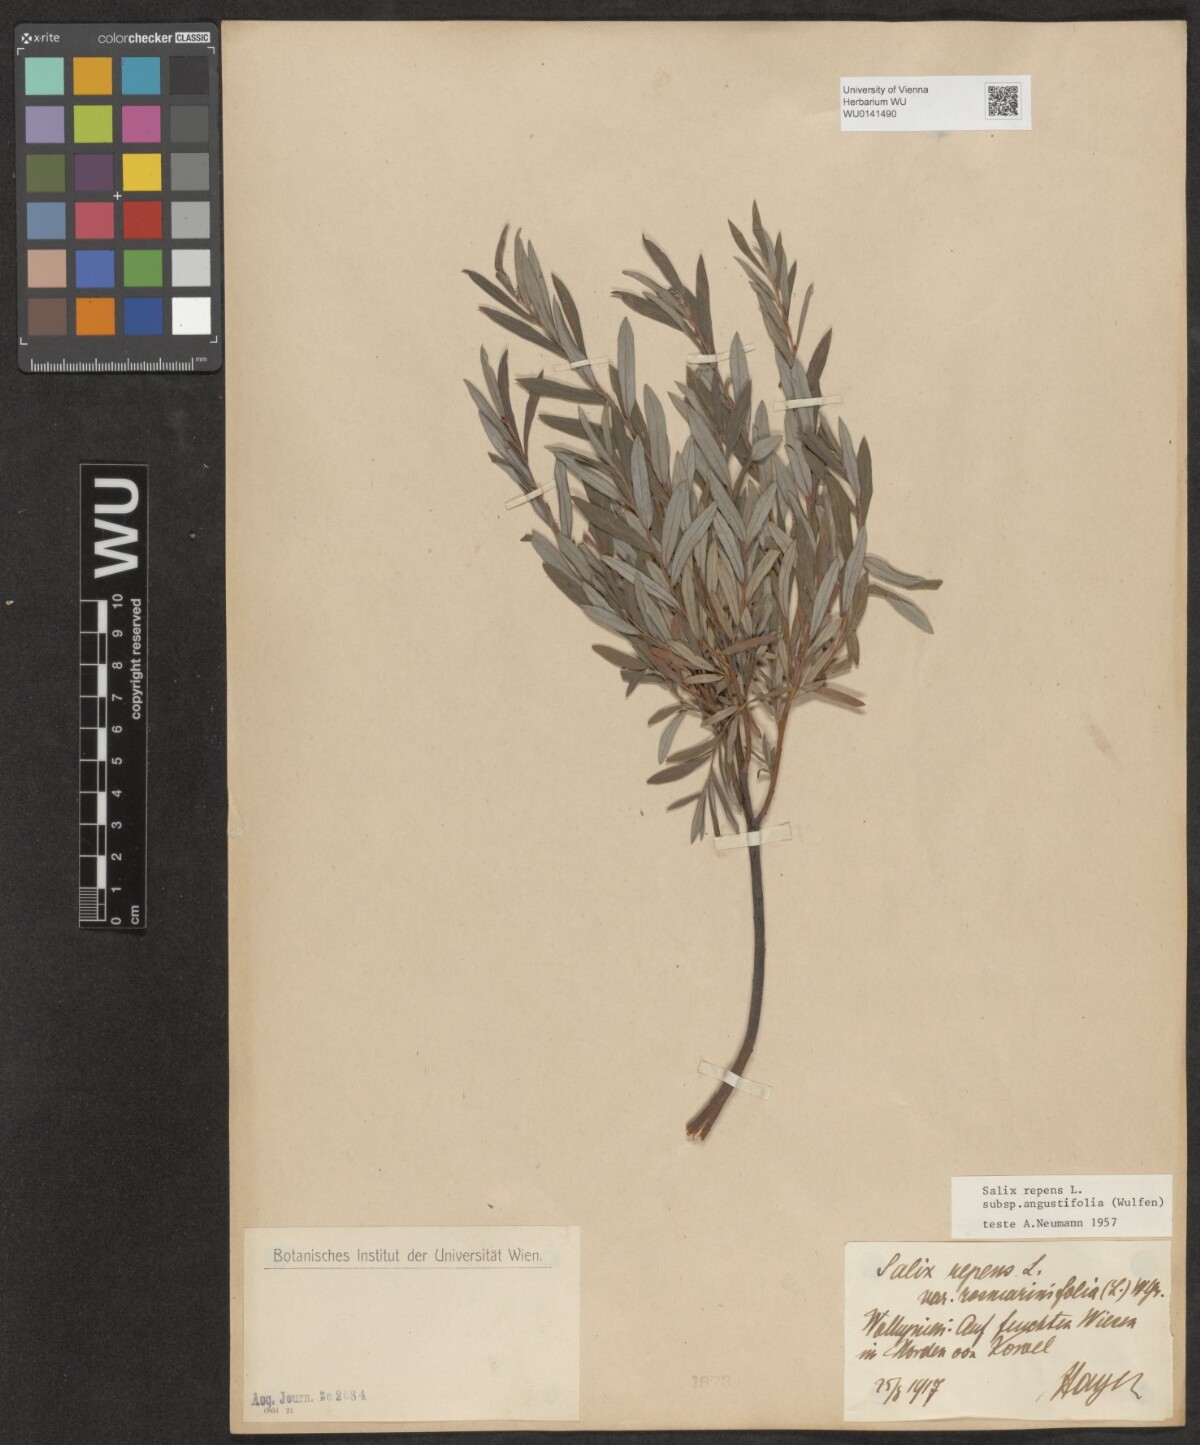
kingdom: Plantae
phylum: Tracheophyta
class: Magnoliopsida
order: Malpighiales
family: Salicaceae
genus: Salix
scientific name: Salix rosmarinifolia
